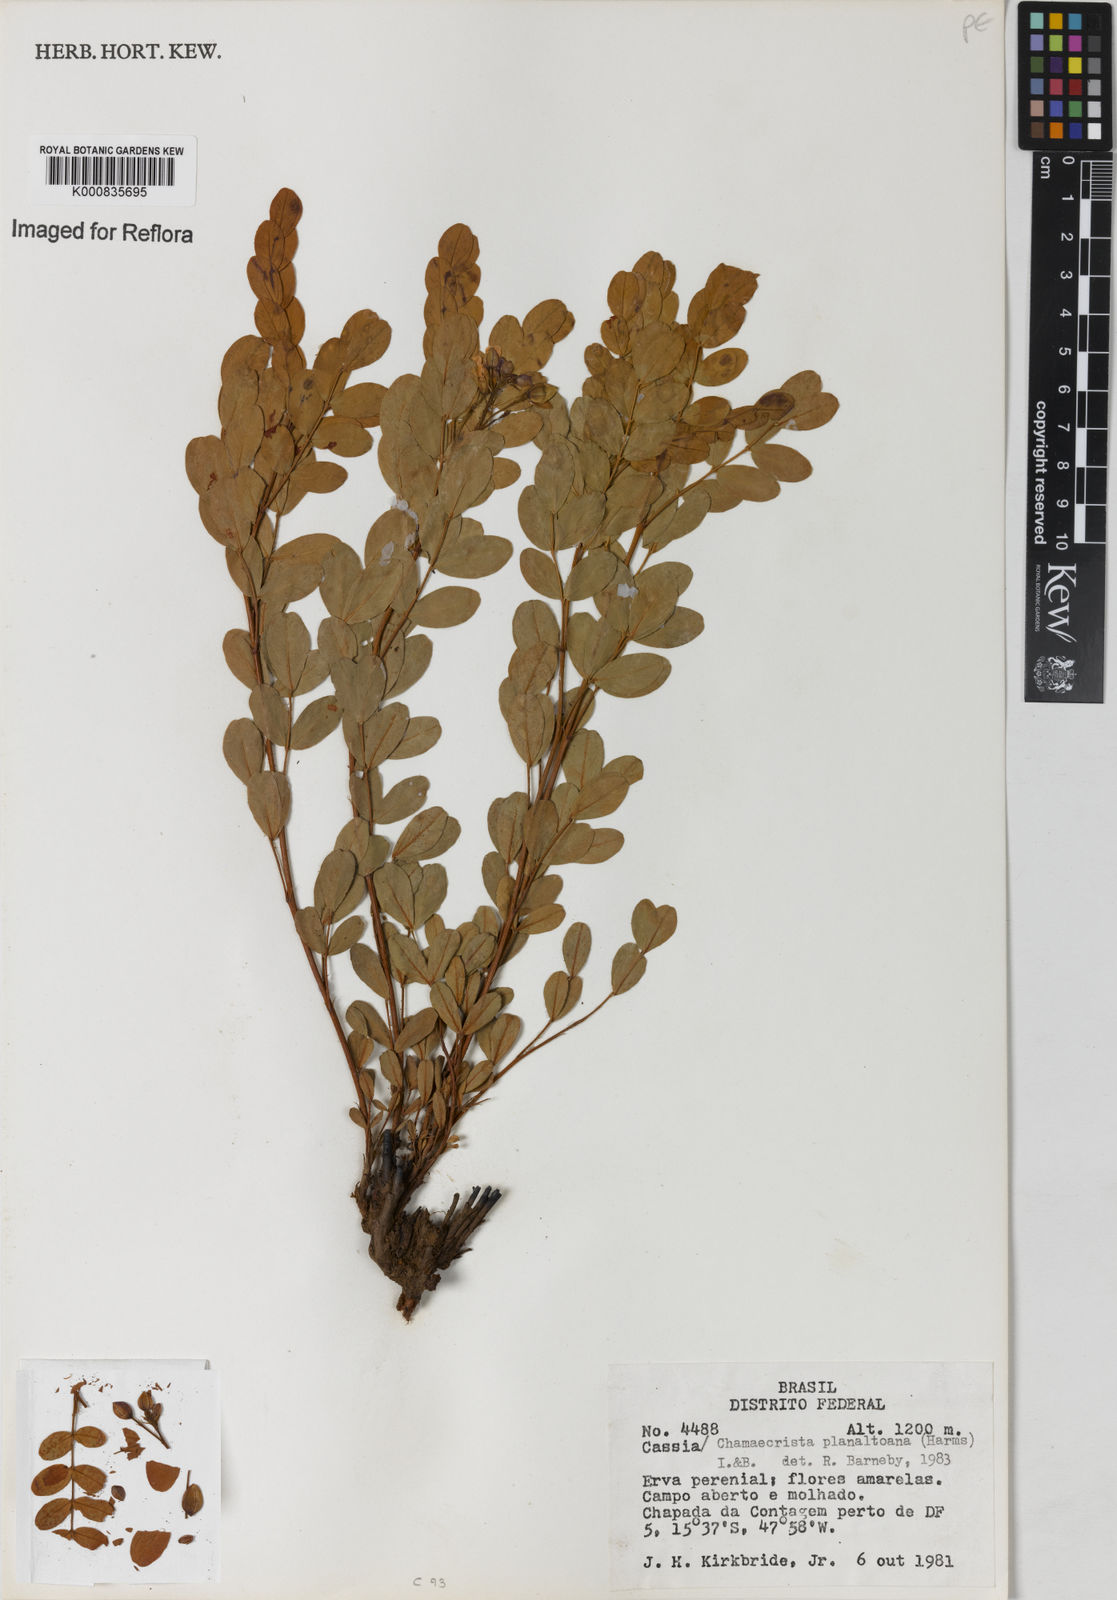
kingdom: Plantae
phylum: Tracheophyta
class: Magnoliopsida
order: Fabales
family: Fabaceae
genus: Chamaecrista
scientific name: Chamaecrista planaltoana
